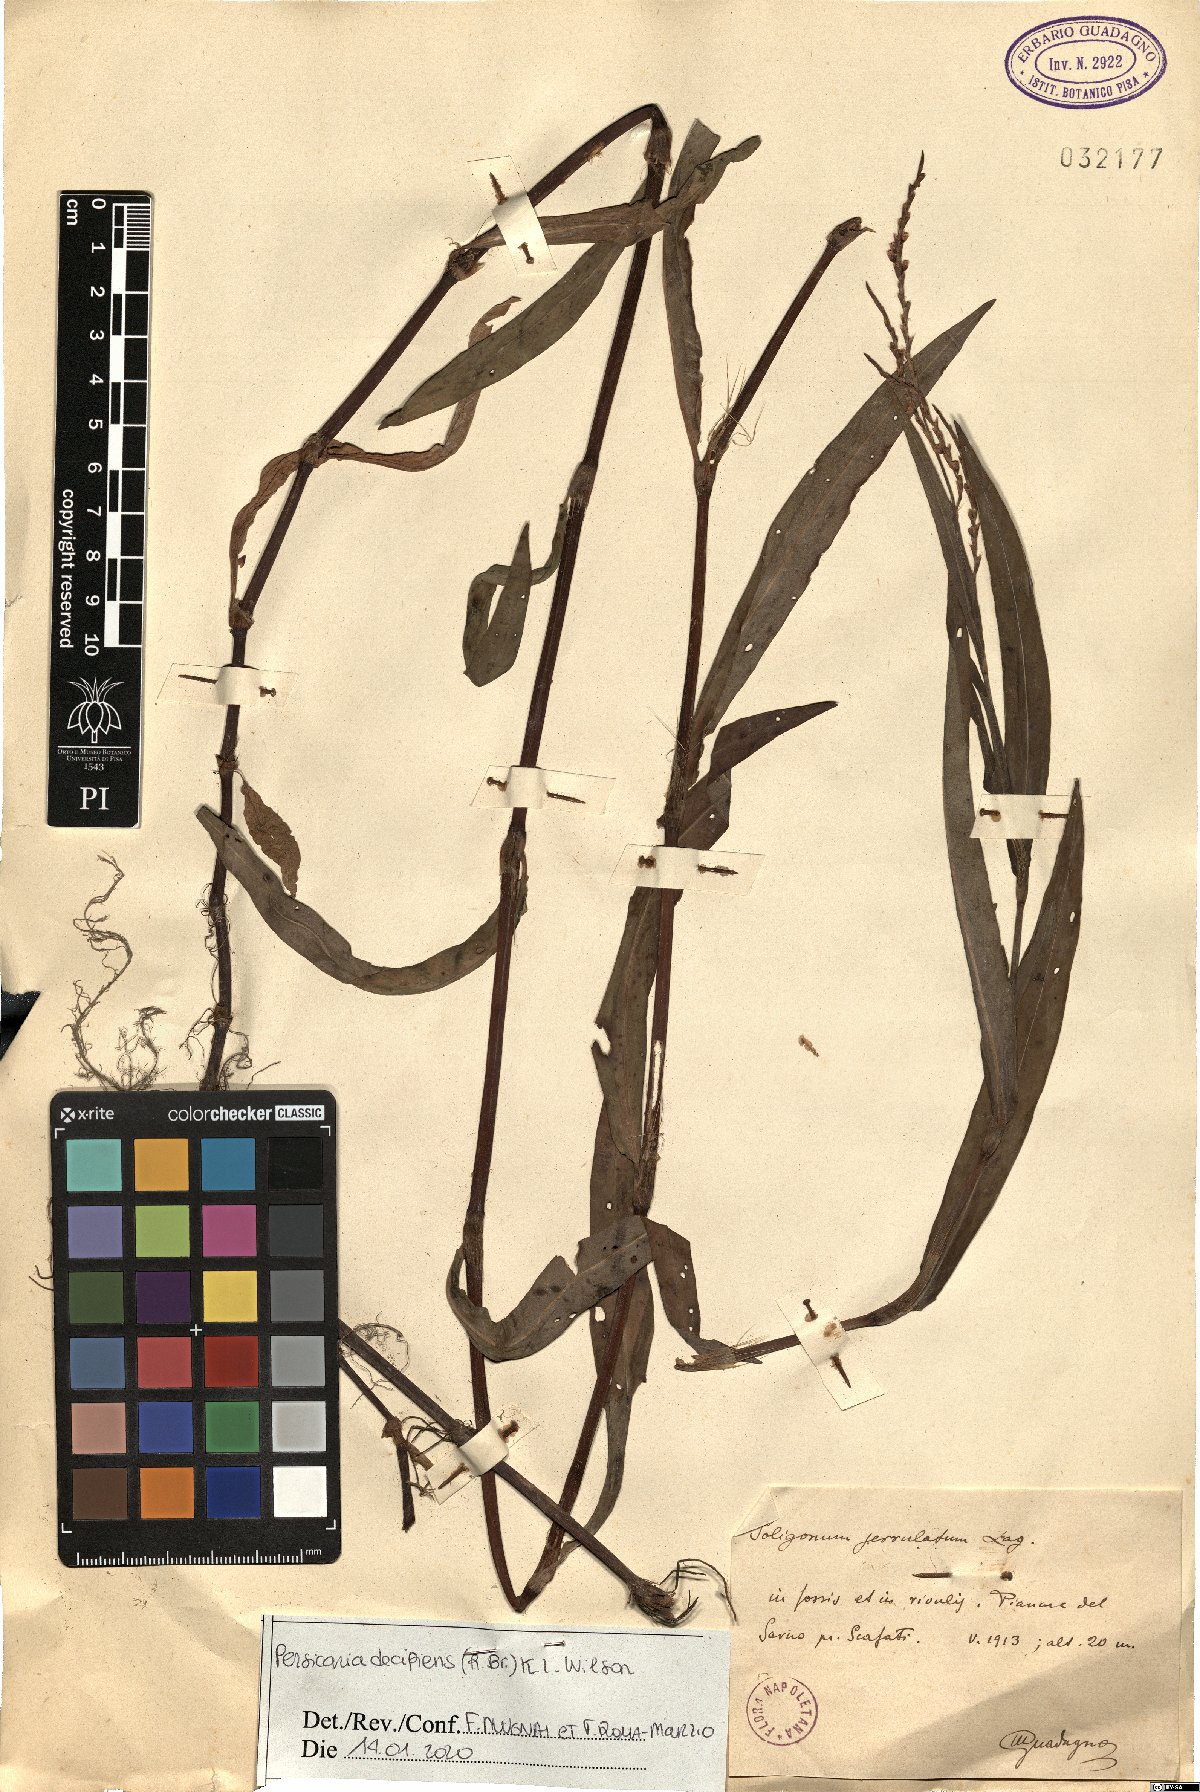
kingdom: Plantae
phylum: Tracheophyta
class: Magnoliopsida
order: Caryophyllales
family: Polygonaceae
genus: Persicaria
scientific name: Persicaria decipiens
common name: Willow-weed
